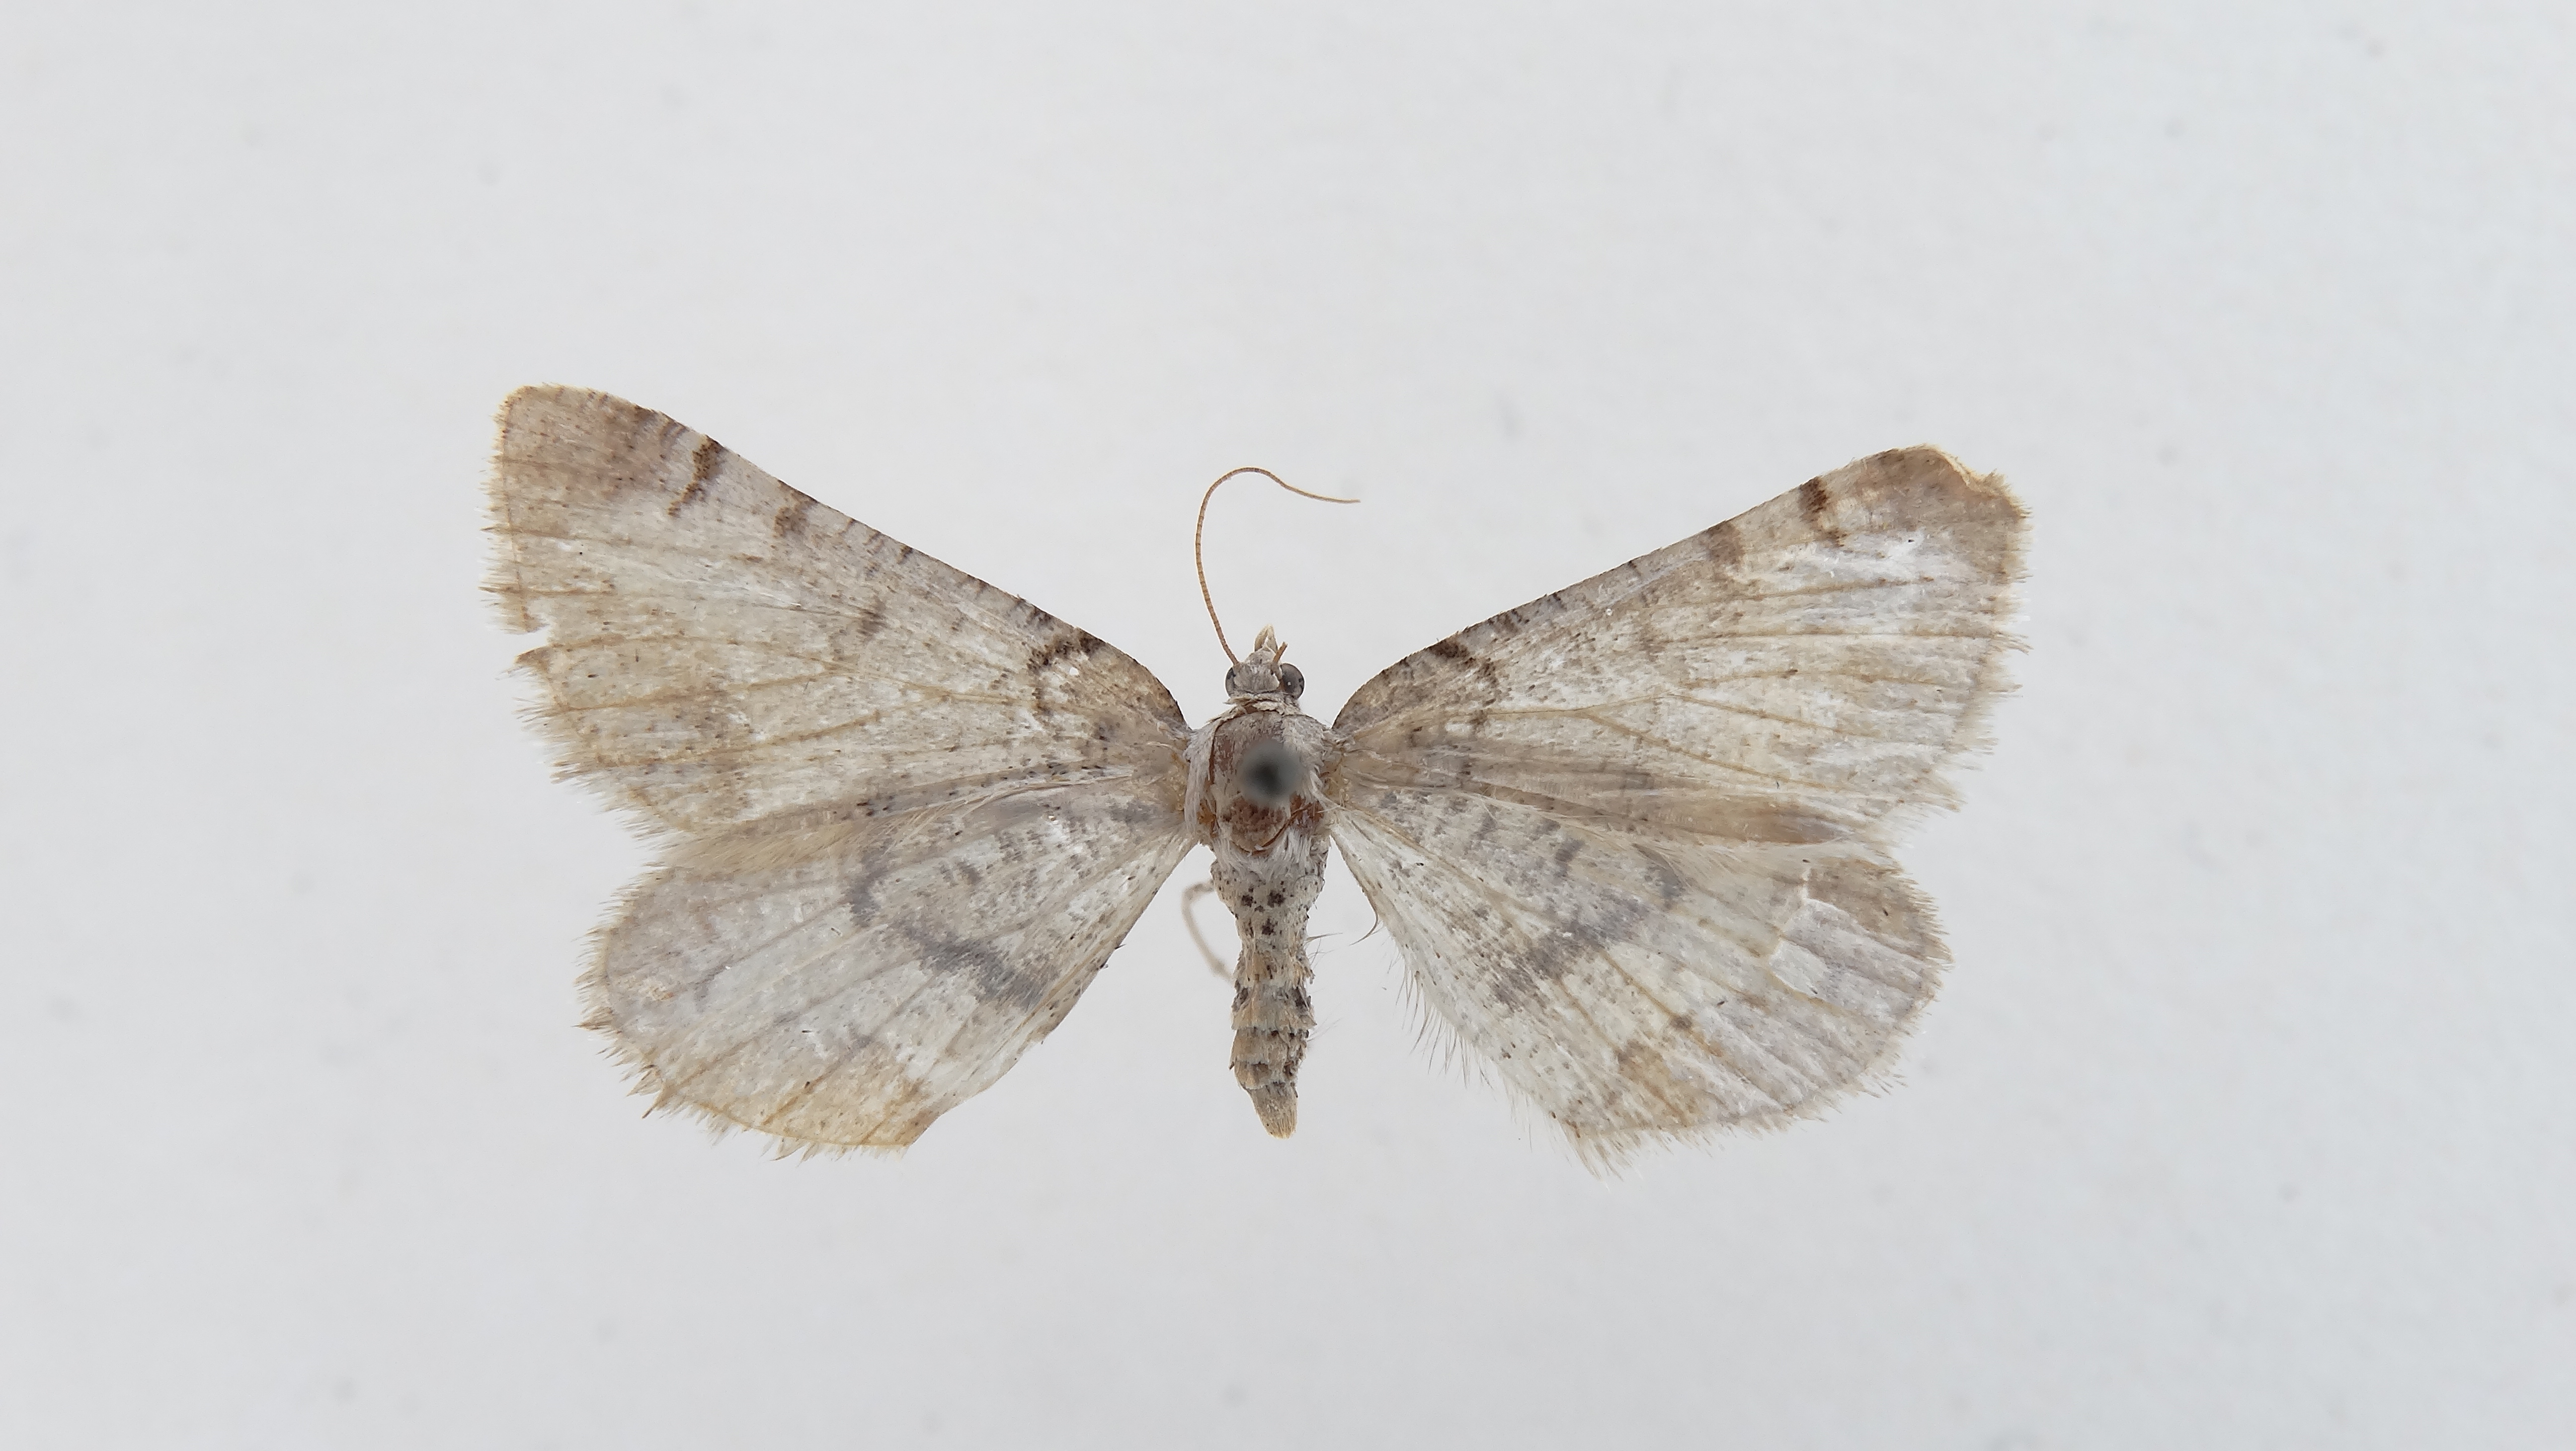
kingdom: Animalia
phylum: Arthropoda
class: Insecta
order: Lepidoptera
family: Geometridae
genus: Macaria
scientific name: Macaria wauaria
